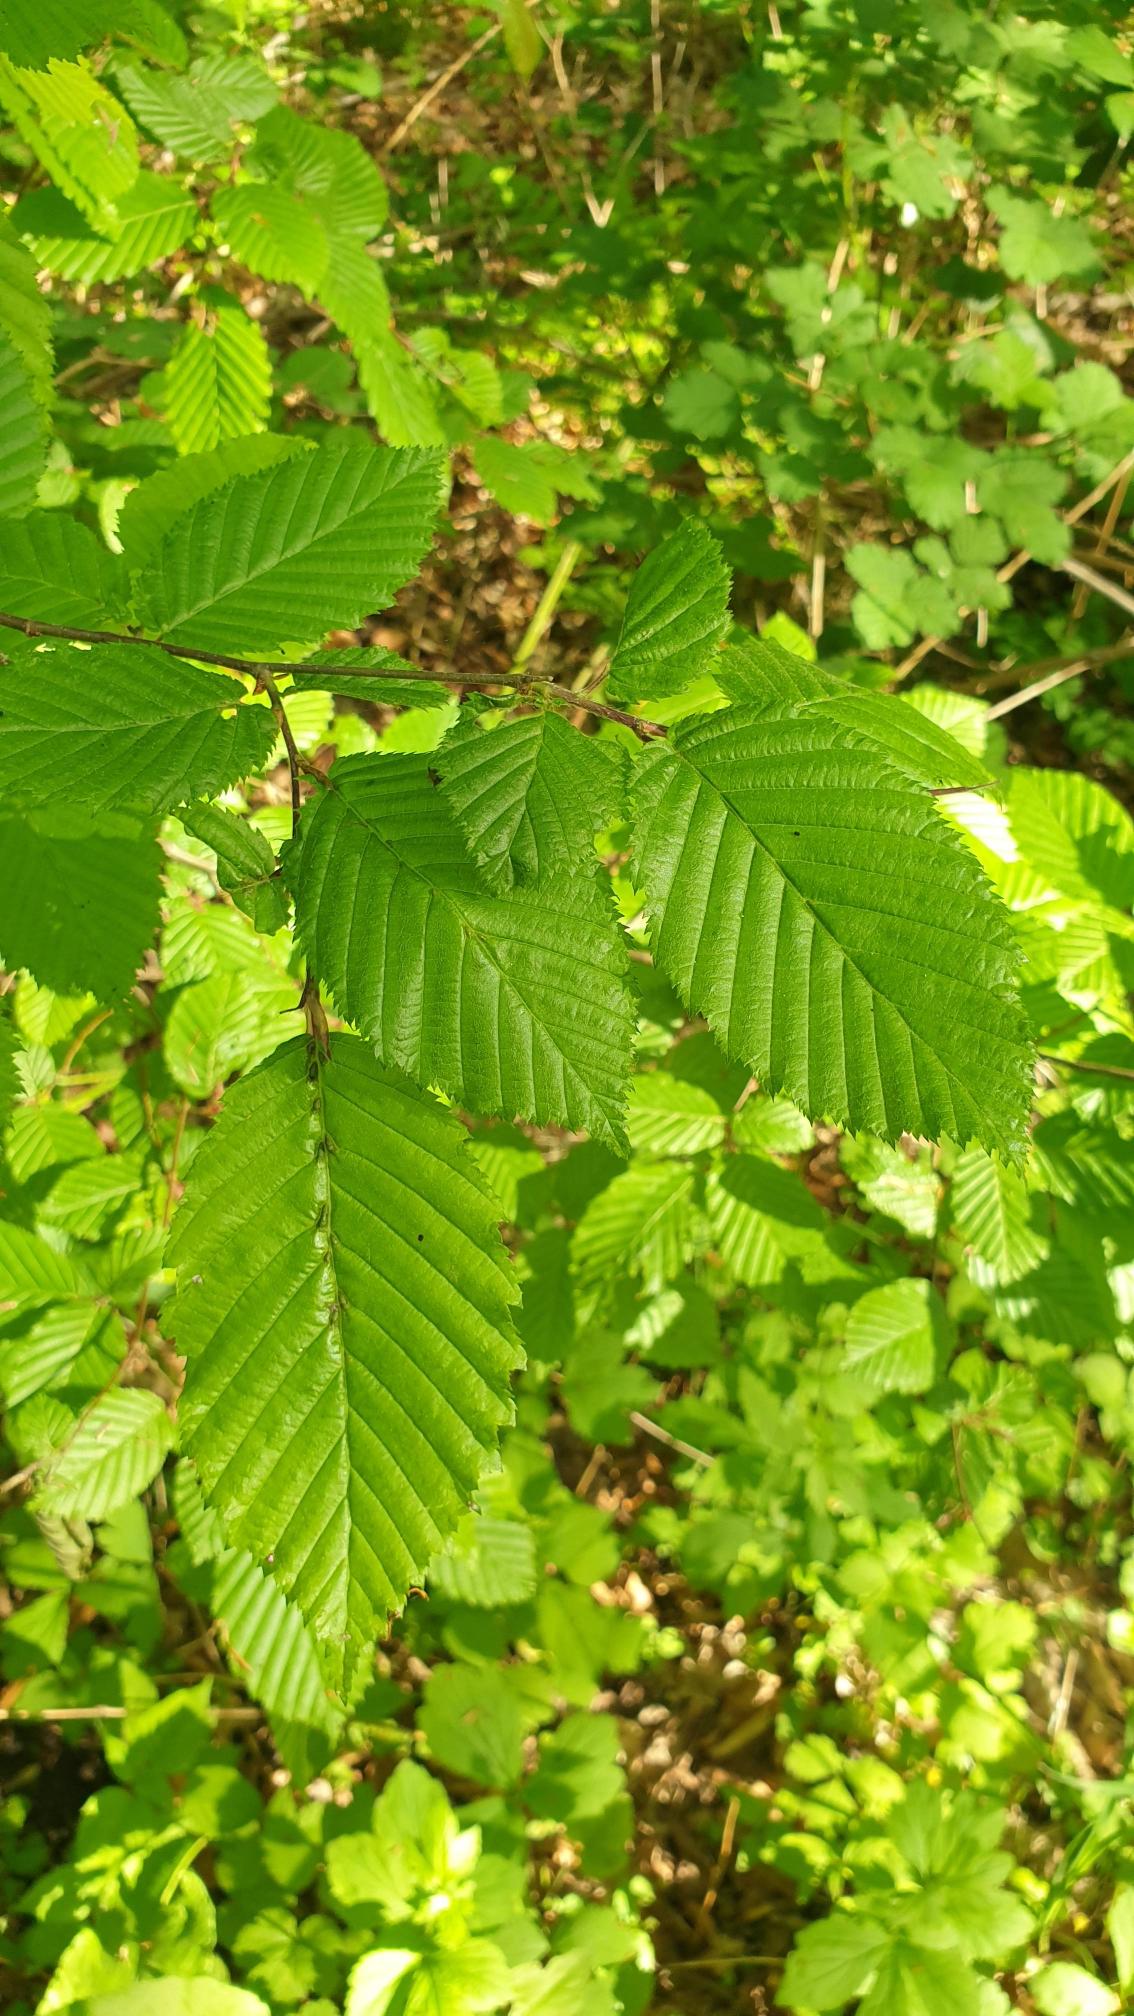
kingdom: Plantae
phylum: Tracheophyta
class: Magnoliopsida
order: Fagales
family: Betulaceae
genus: Carpinus
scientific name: Carpinus betulus
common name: Avnbøg
